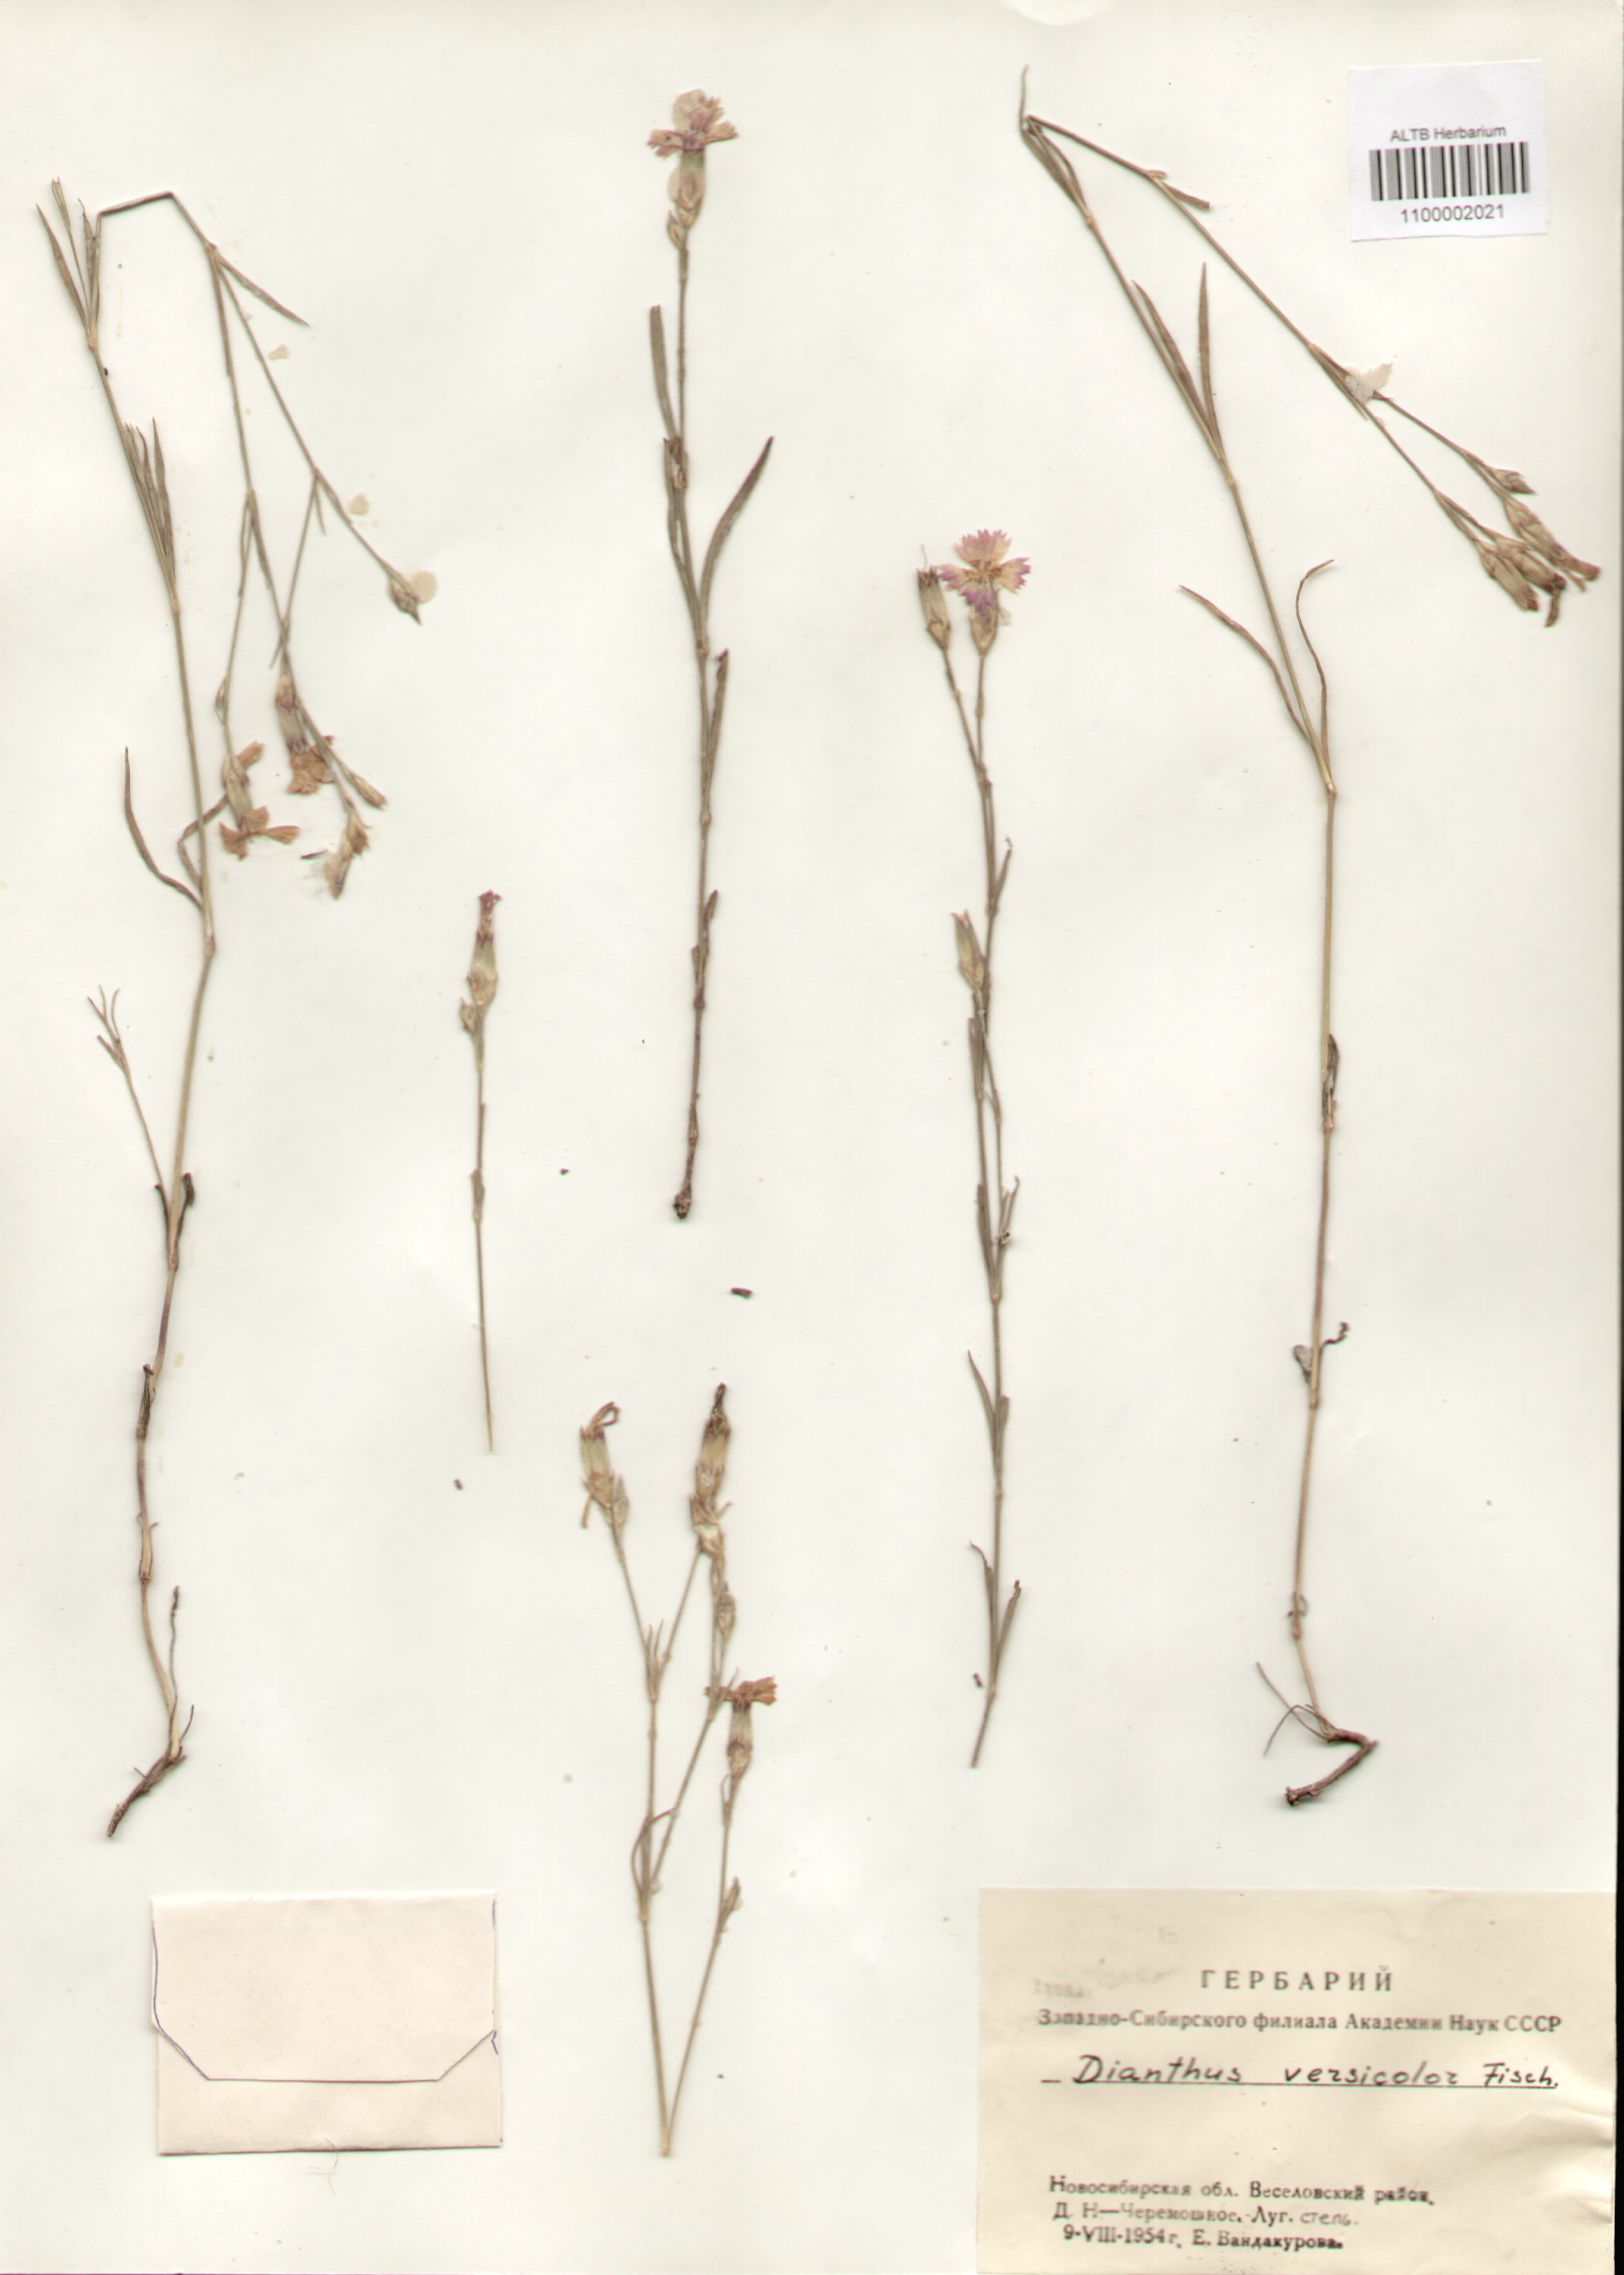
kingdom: Plantae
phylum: Tracheophyta
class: Magnoliopsida
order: Caryophyllales
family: Caryophyllaceae
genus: Dianthus
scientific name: Dianthus chinensis
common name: Rainbow pink
